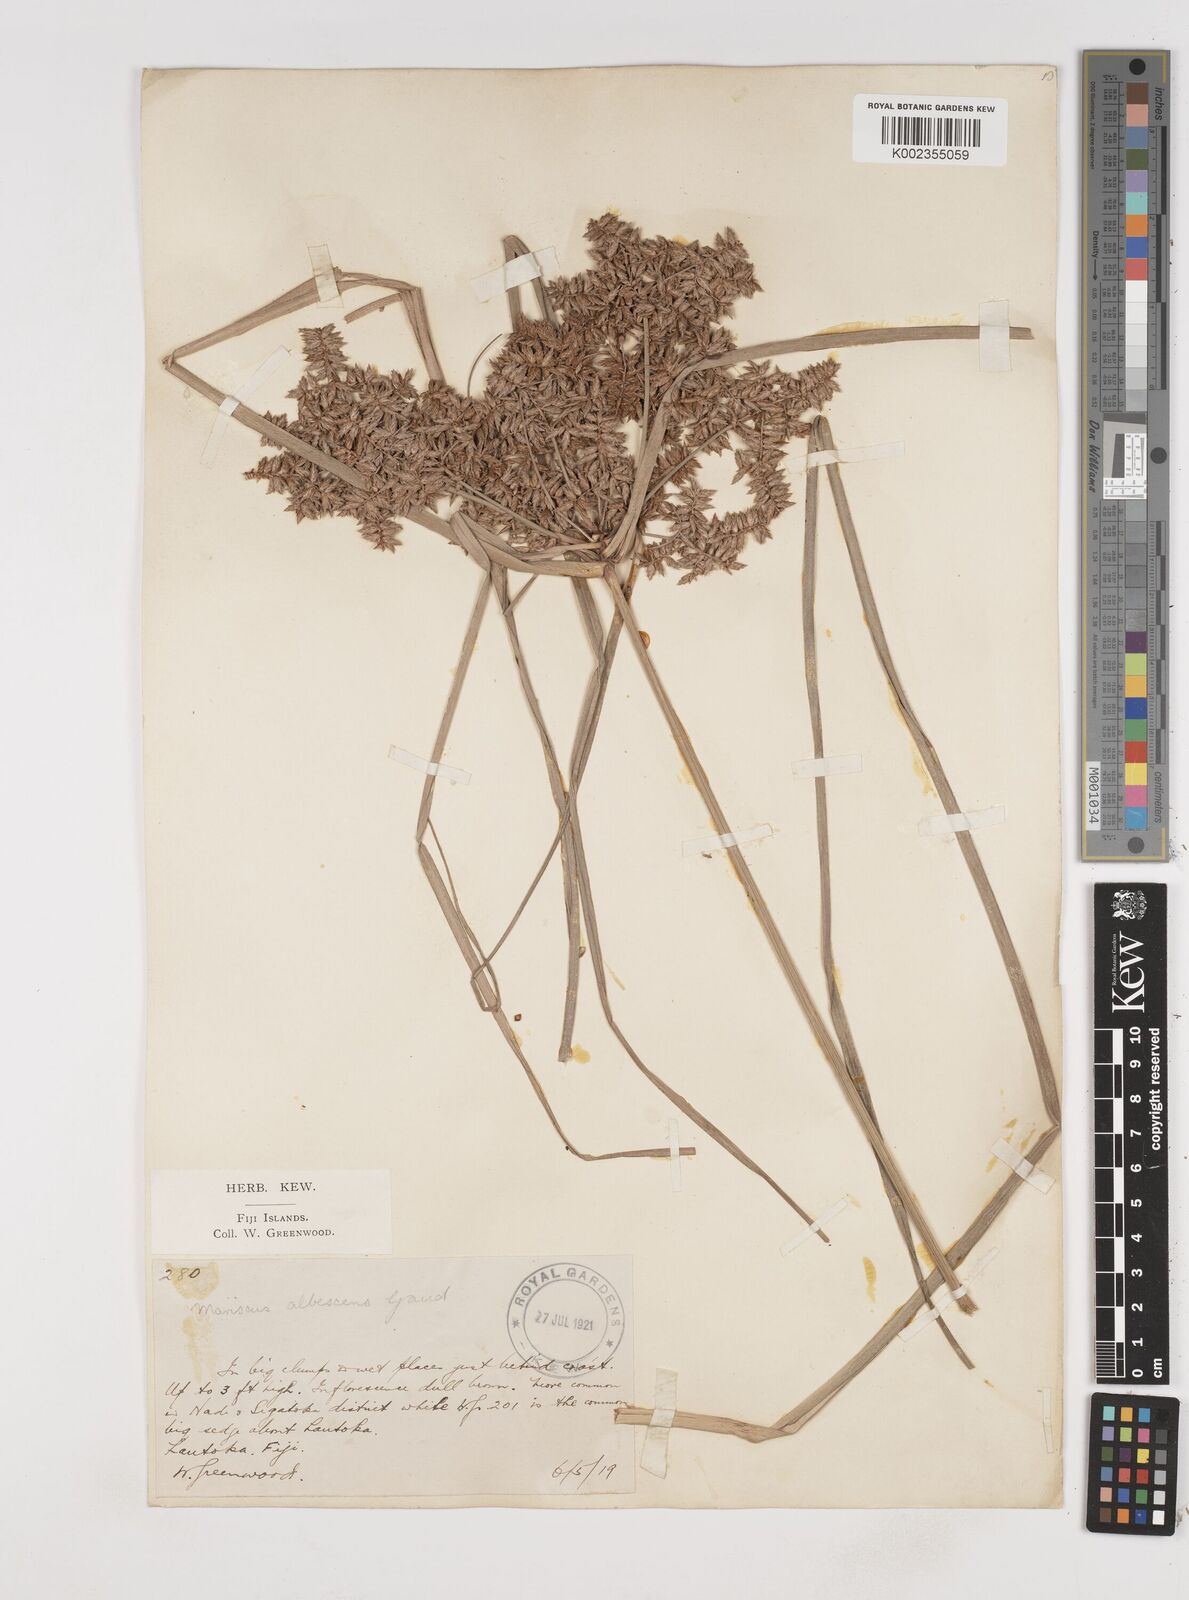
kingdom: Plantae
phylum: Tracheophyta
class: Liliopsida
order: Poales
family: Cyperaceae
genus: Cyperus
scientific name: Cyperus javanicus
